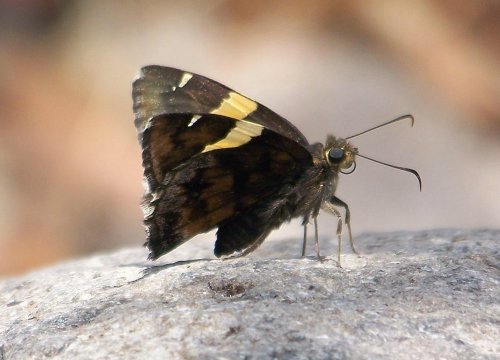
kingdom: Animalia
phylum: Arthropoda
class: Insecta
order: Lepidoptera
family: Hesperiidae
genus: Autochton
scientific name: Autochton cellus
